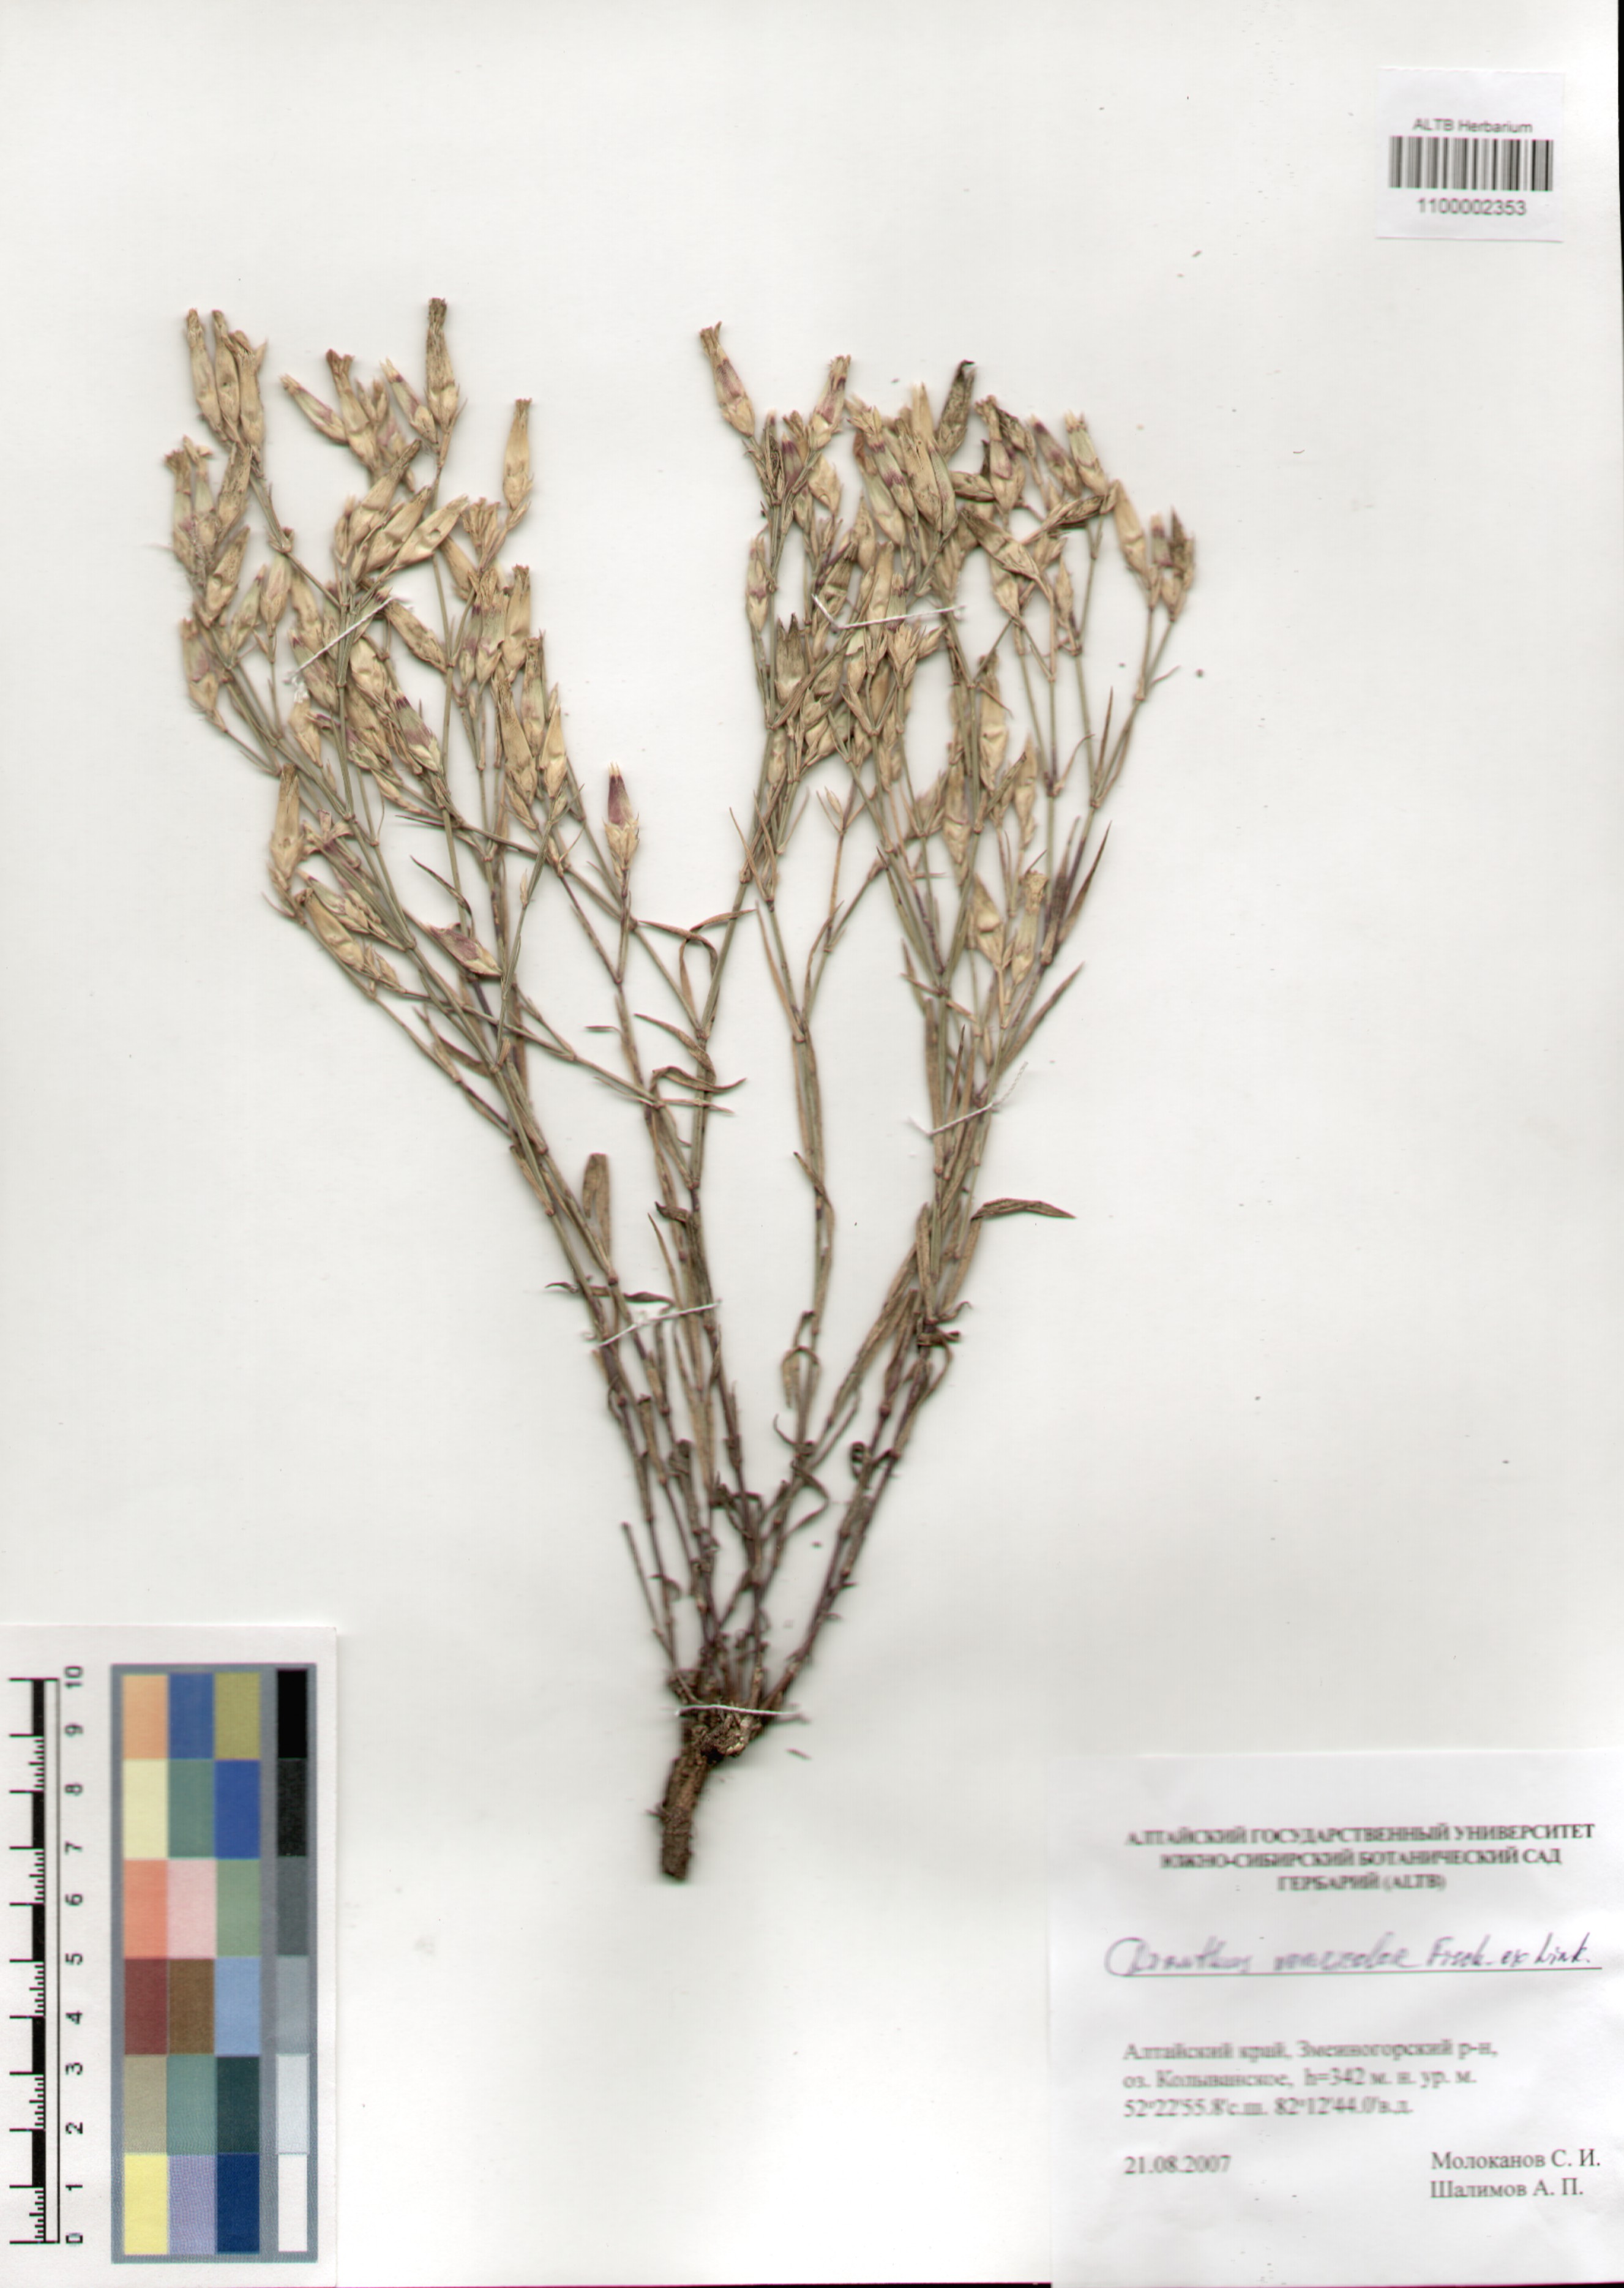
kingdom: Plantae
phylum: Tracheophyta
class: Magnoliopsida
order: Caryophyllales
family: Caryophyllaceae
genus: Dianthus
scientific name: Dianthus chinensis
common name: Rainbow pink
